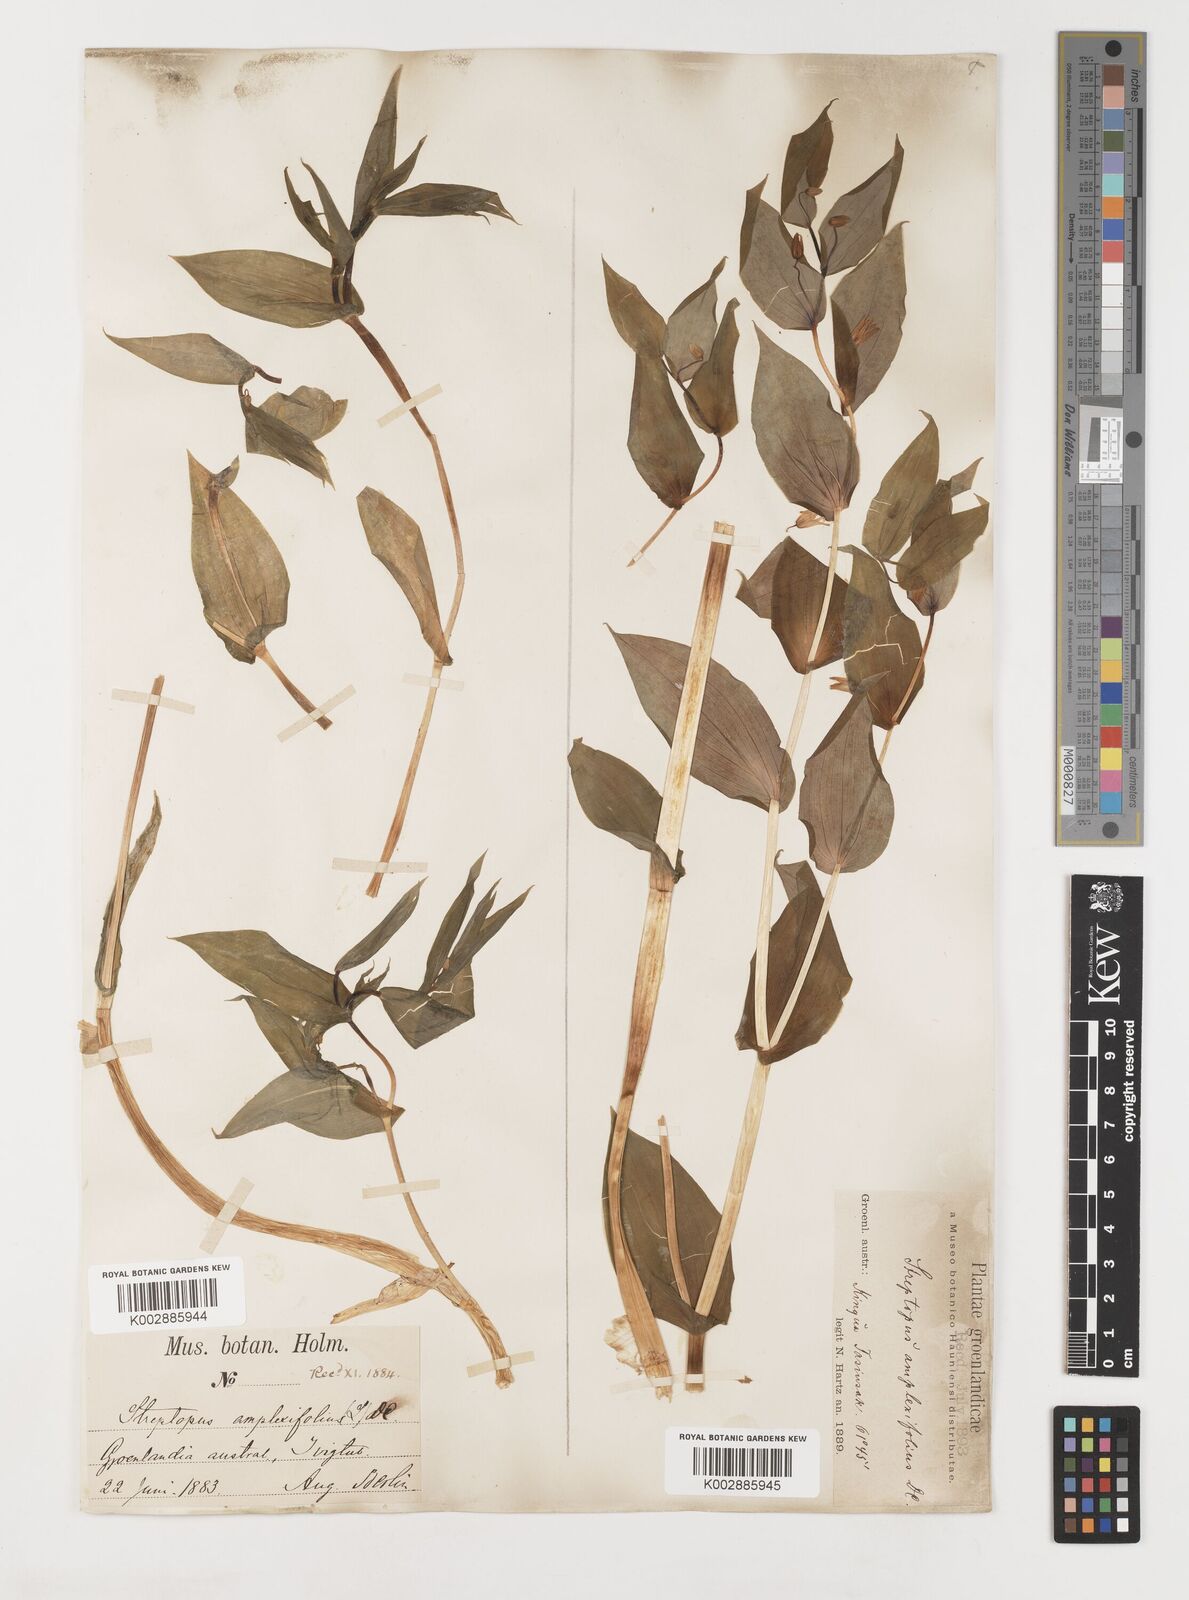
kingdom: Plantae
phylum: Tracheophyta
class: Liliopsida
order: Liliales
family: Liliaceae
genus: Streptopus
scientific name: Streptopus amplexifolius
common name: Clasp twisted stalk
